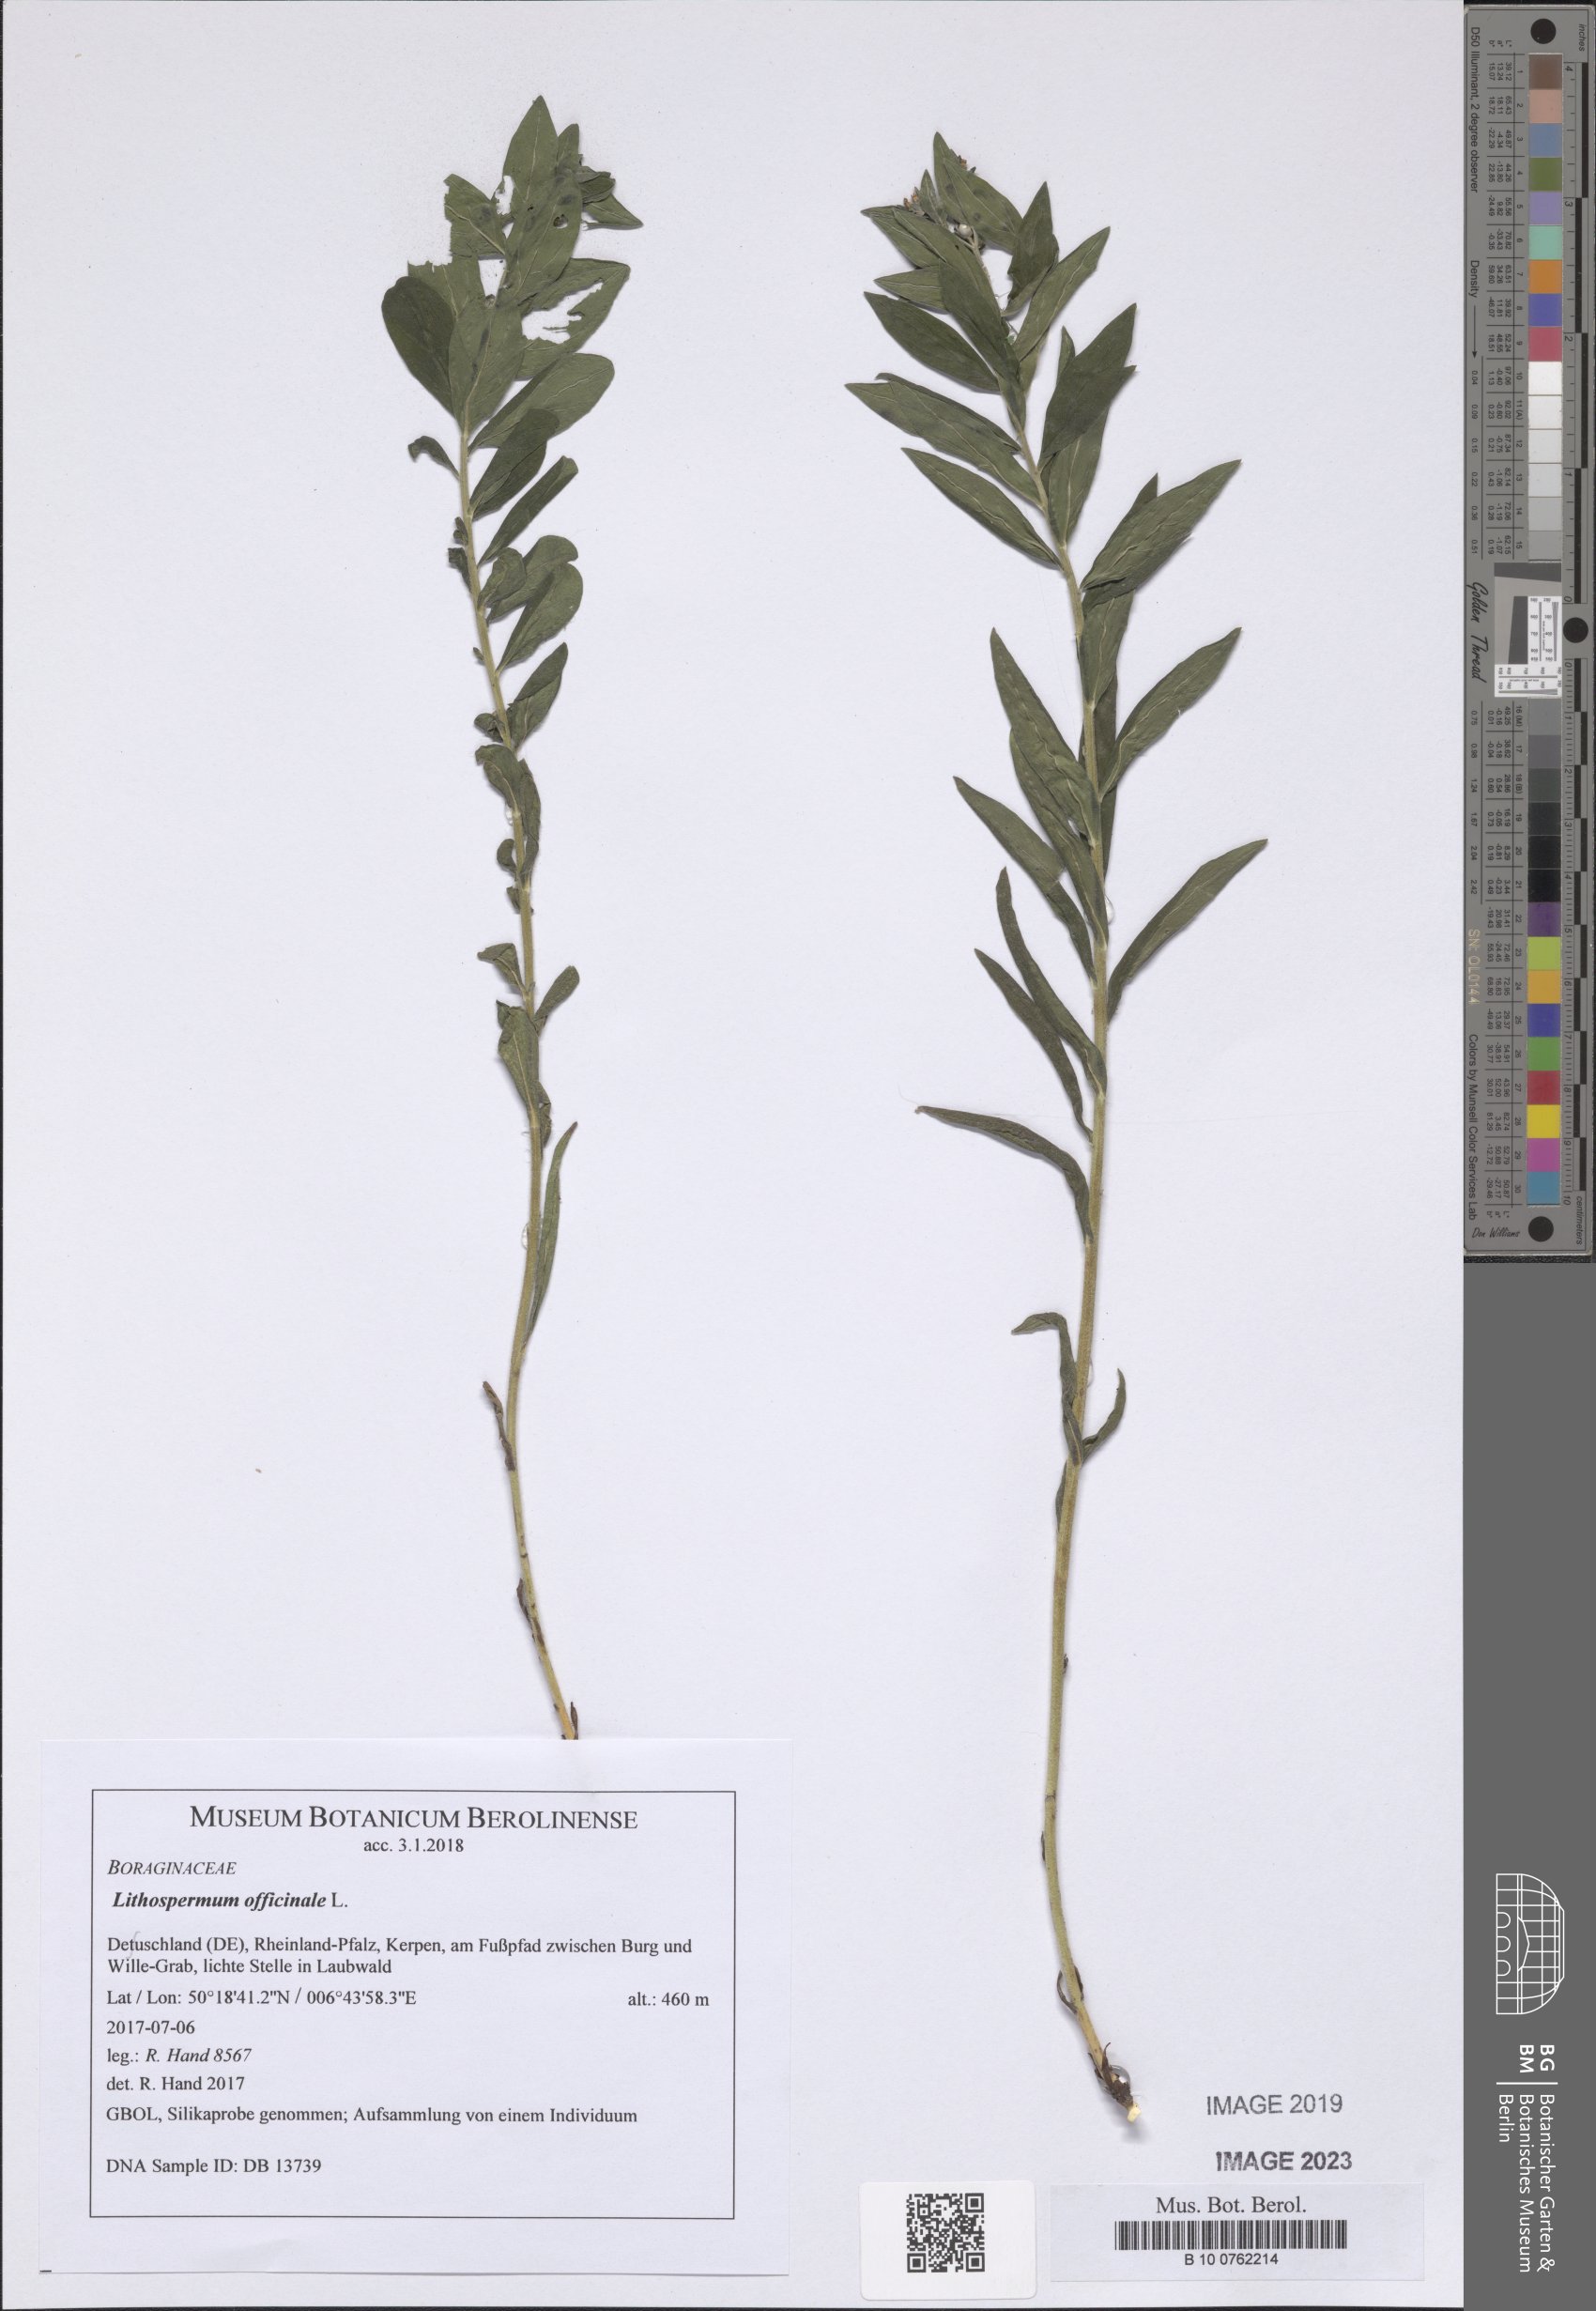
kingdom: Plantae
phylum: Tracheophyta
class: Magnoliopsida
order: Boraginales
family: Boraginaceae
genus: Lithospermum
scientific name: Lithospermum officinale
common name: Common gromwell
